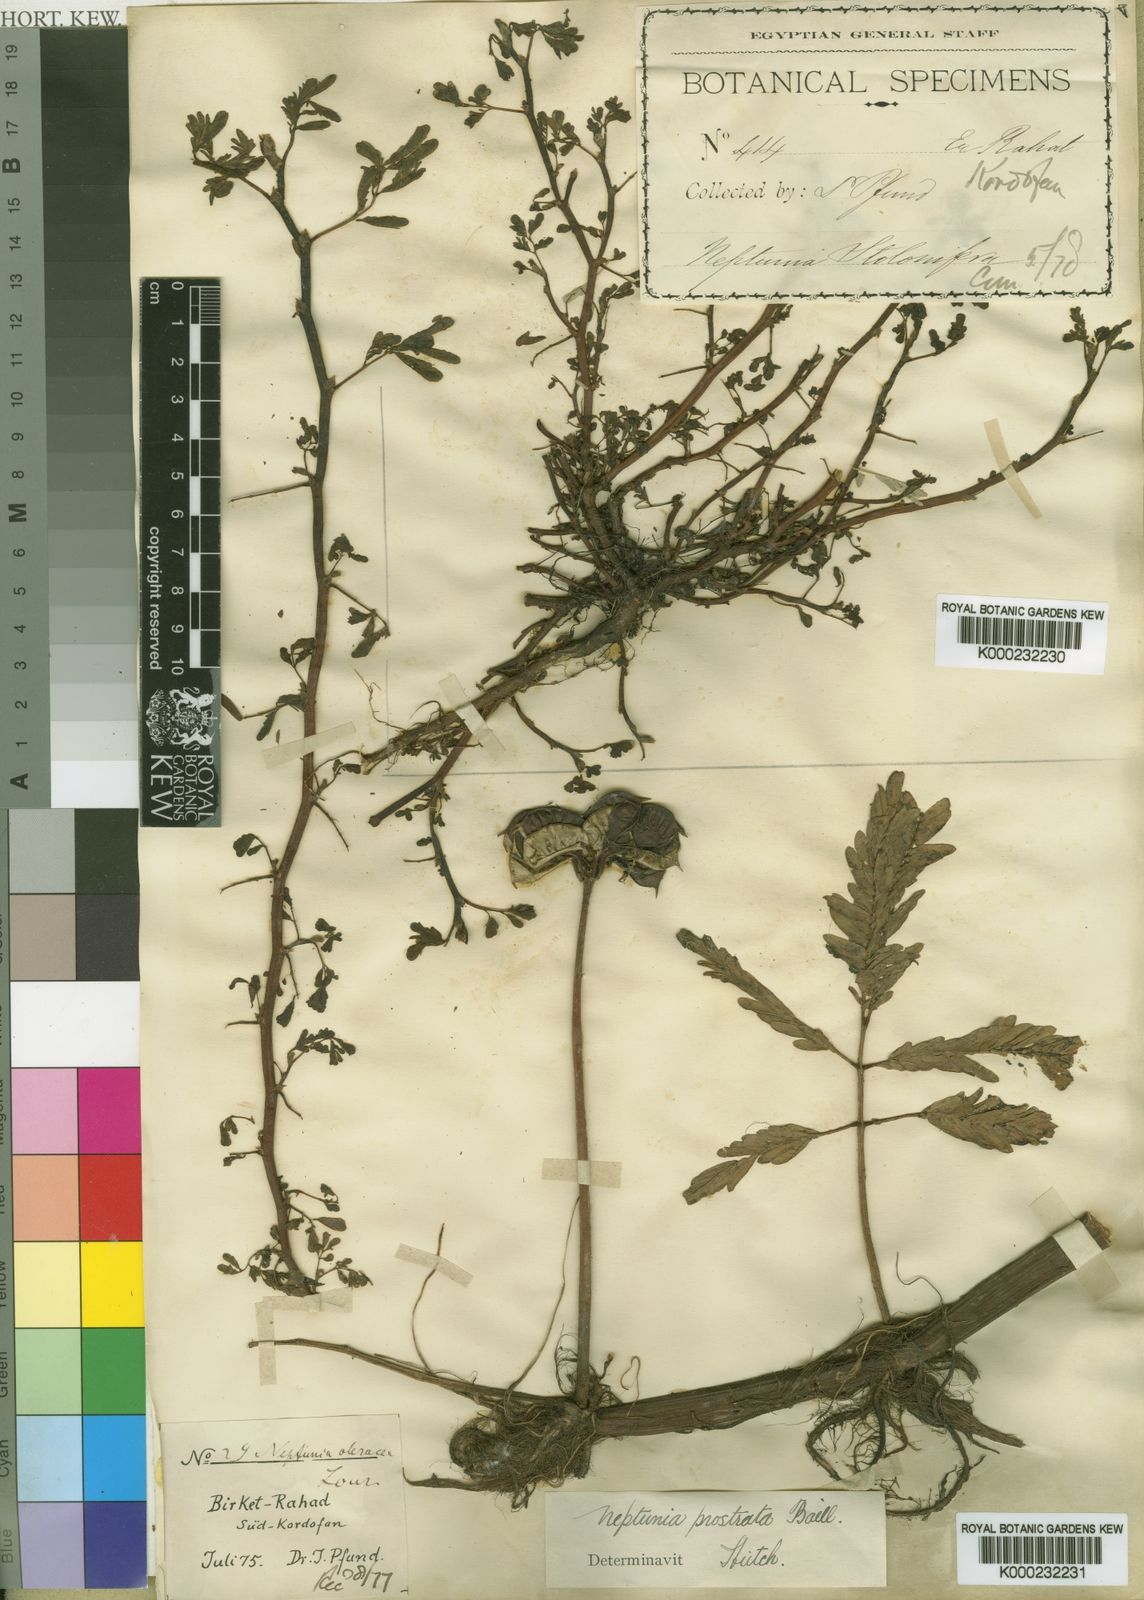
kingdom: Plantae
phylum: Tracheophyta
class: Magnoliopsida
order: Fabales
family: Fabaceae
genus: Neptunia
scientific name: Neptunia prostrata
